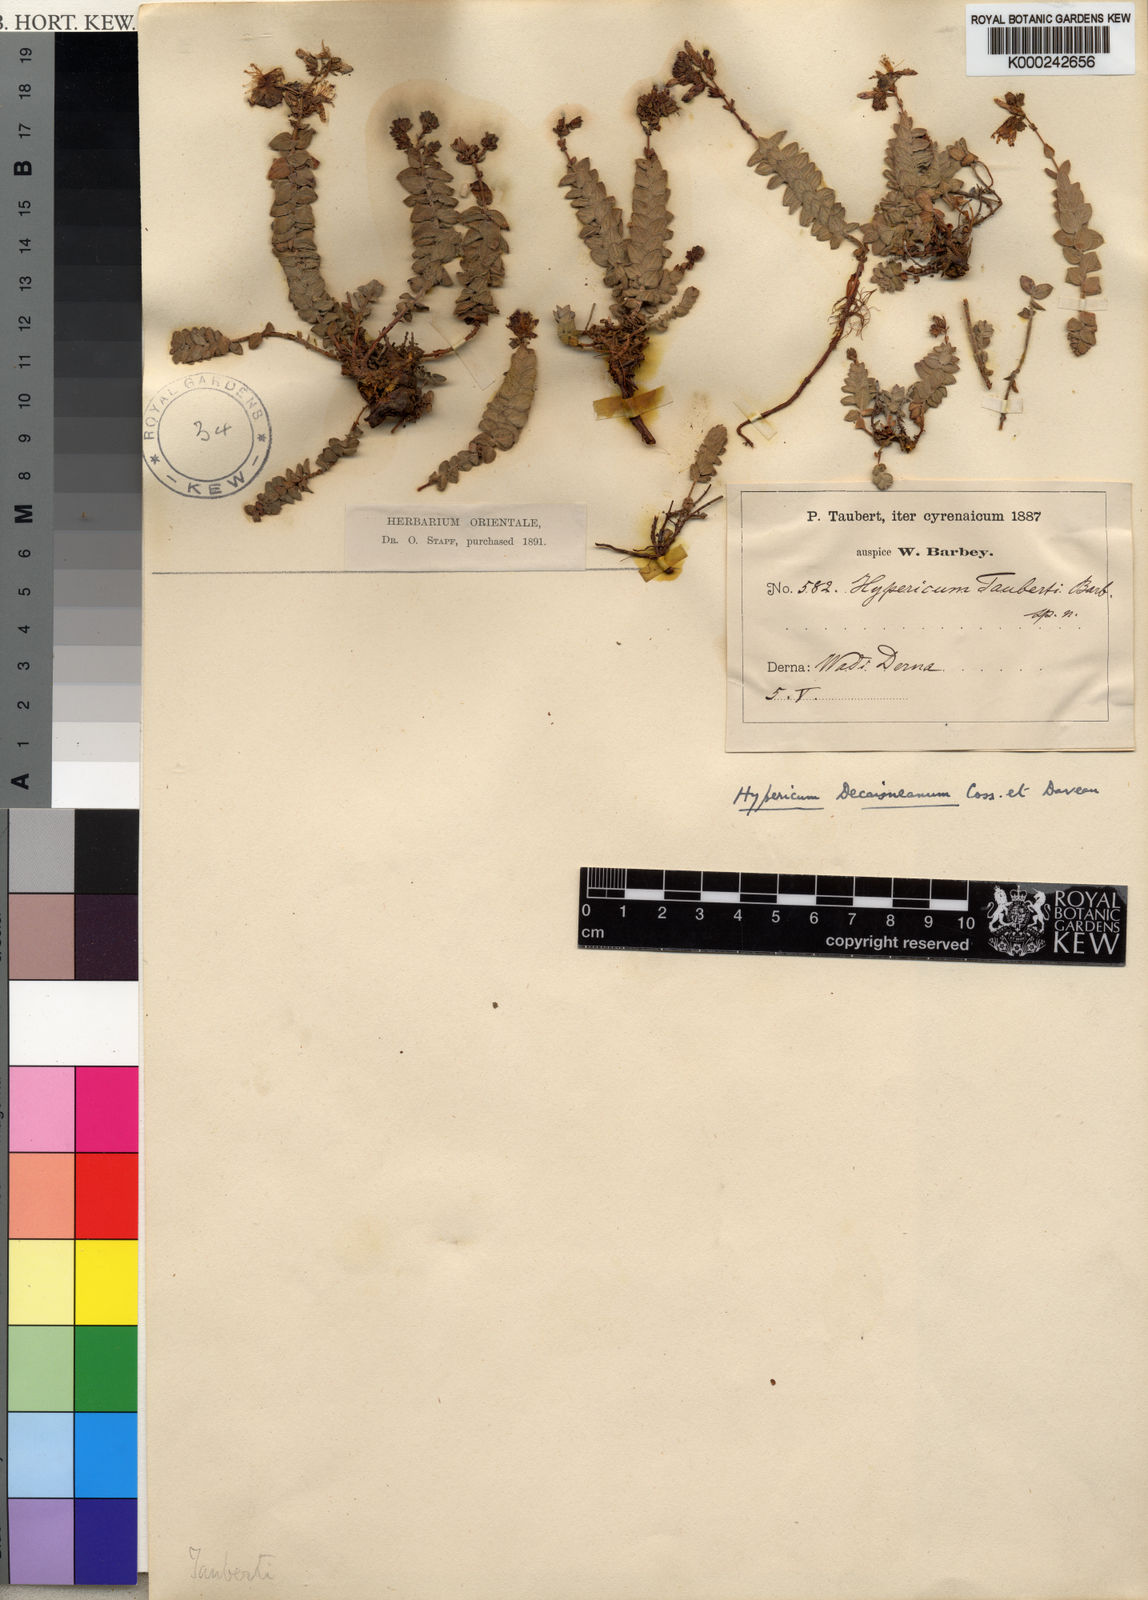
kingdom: Plantae
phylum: Tracheophyta
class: Magnoliopsida
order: Malpighiales
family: Hypericaceae
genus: Hypericum
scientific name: Hypericum
